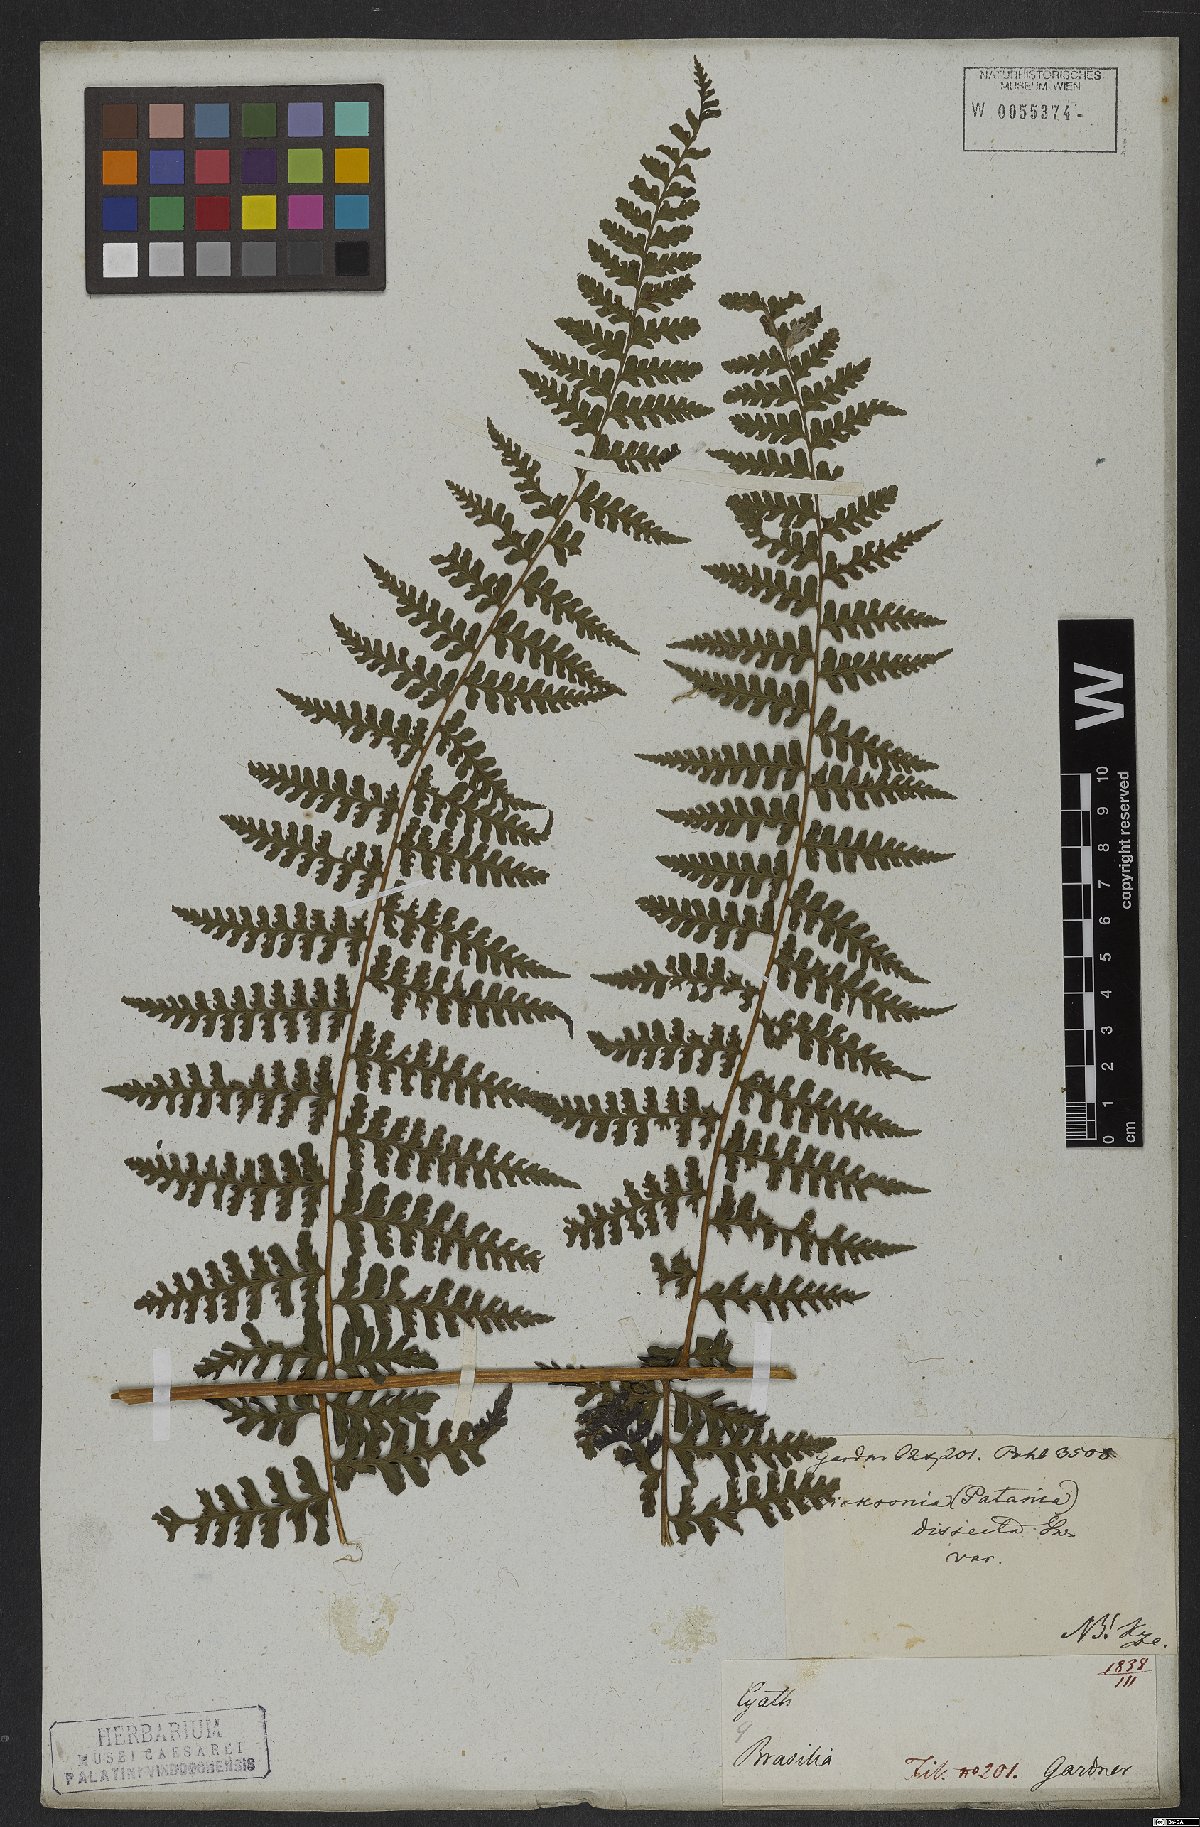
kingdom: Plantae
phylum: Tracheophyta
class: Polypodiopsida
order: Polypodiales
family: Dennstaedtiaceae
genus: Dennstaedtia
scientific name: Dennstaedtia dissecta
